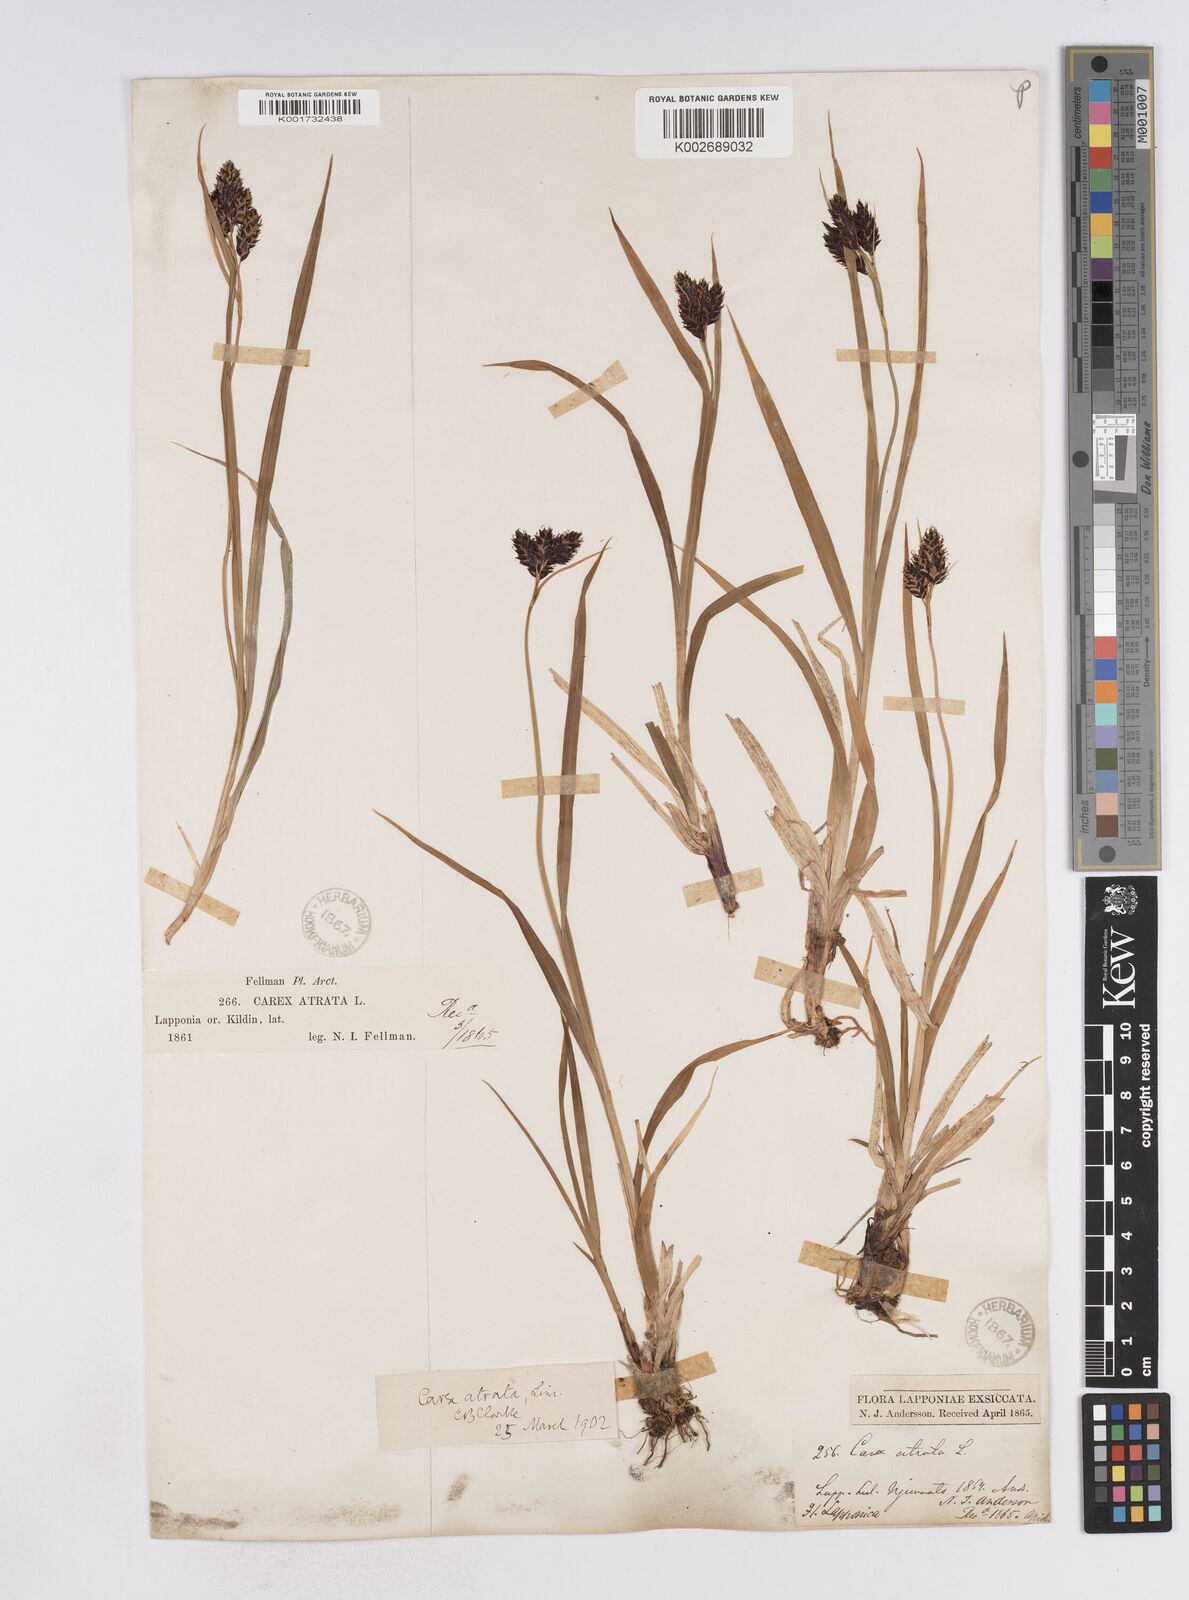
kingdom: Plantae
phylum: Tracheophyta
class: Liliopsida
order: Poales
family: Cyperaceae
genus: Carex
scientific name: Carex atrata
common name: Black alpine sedge
